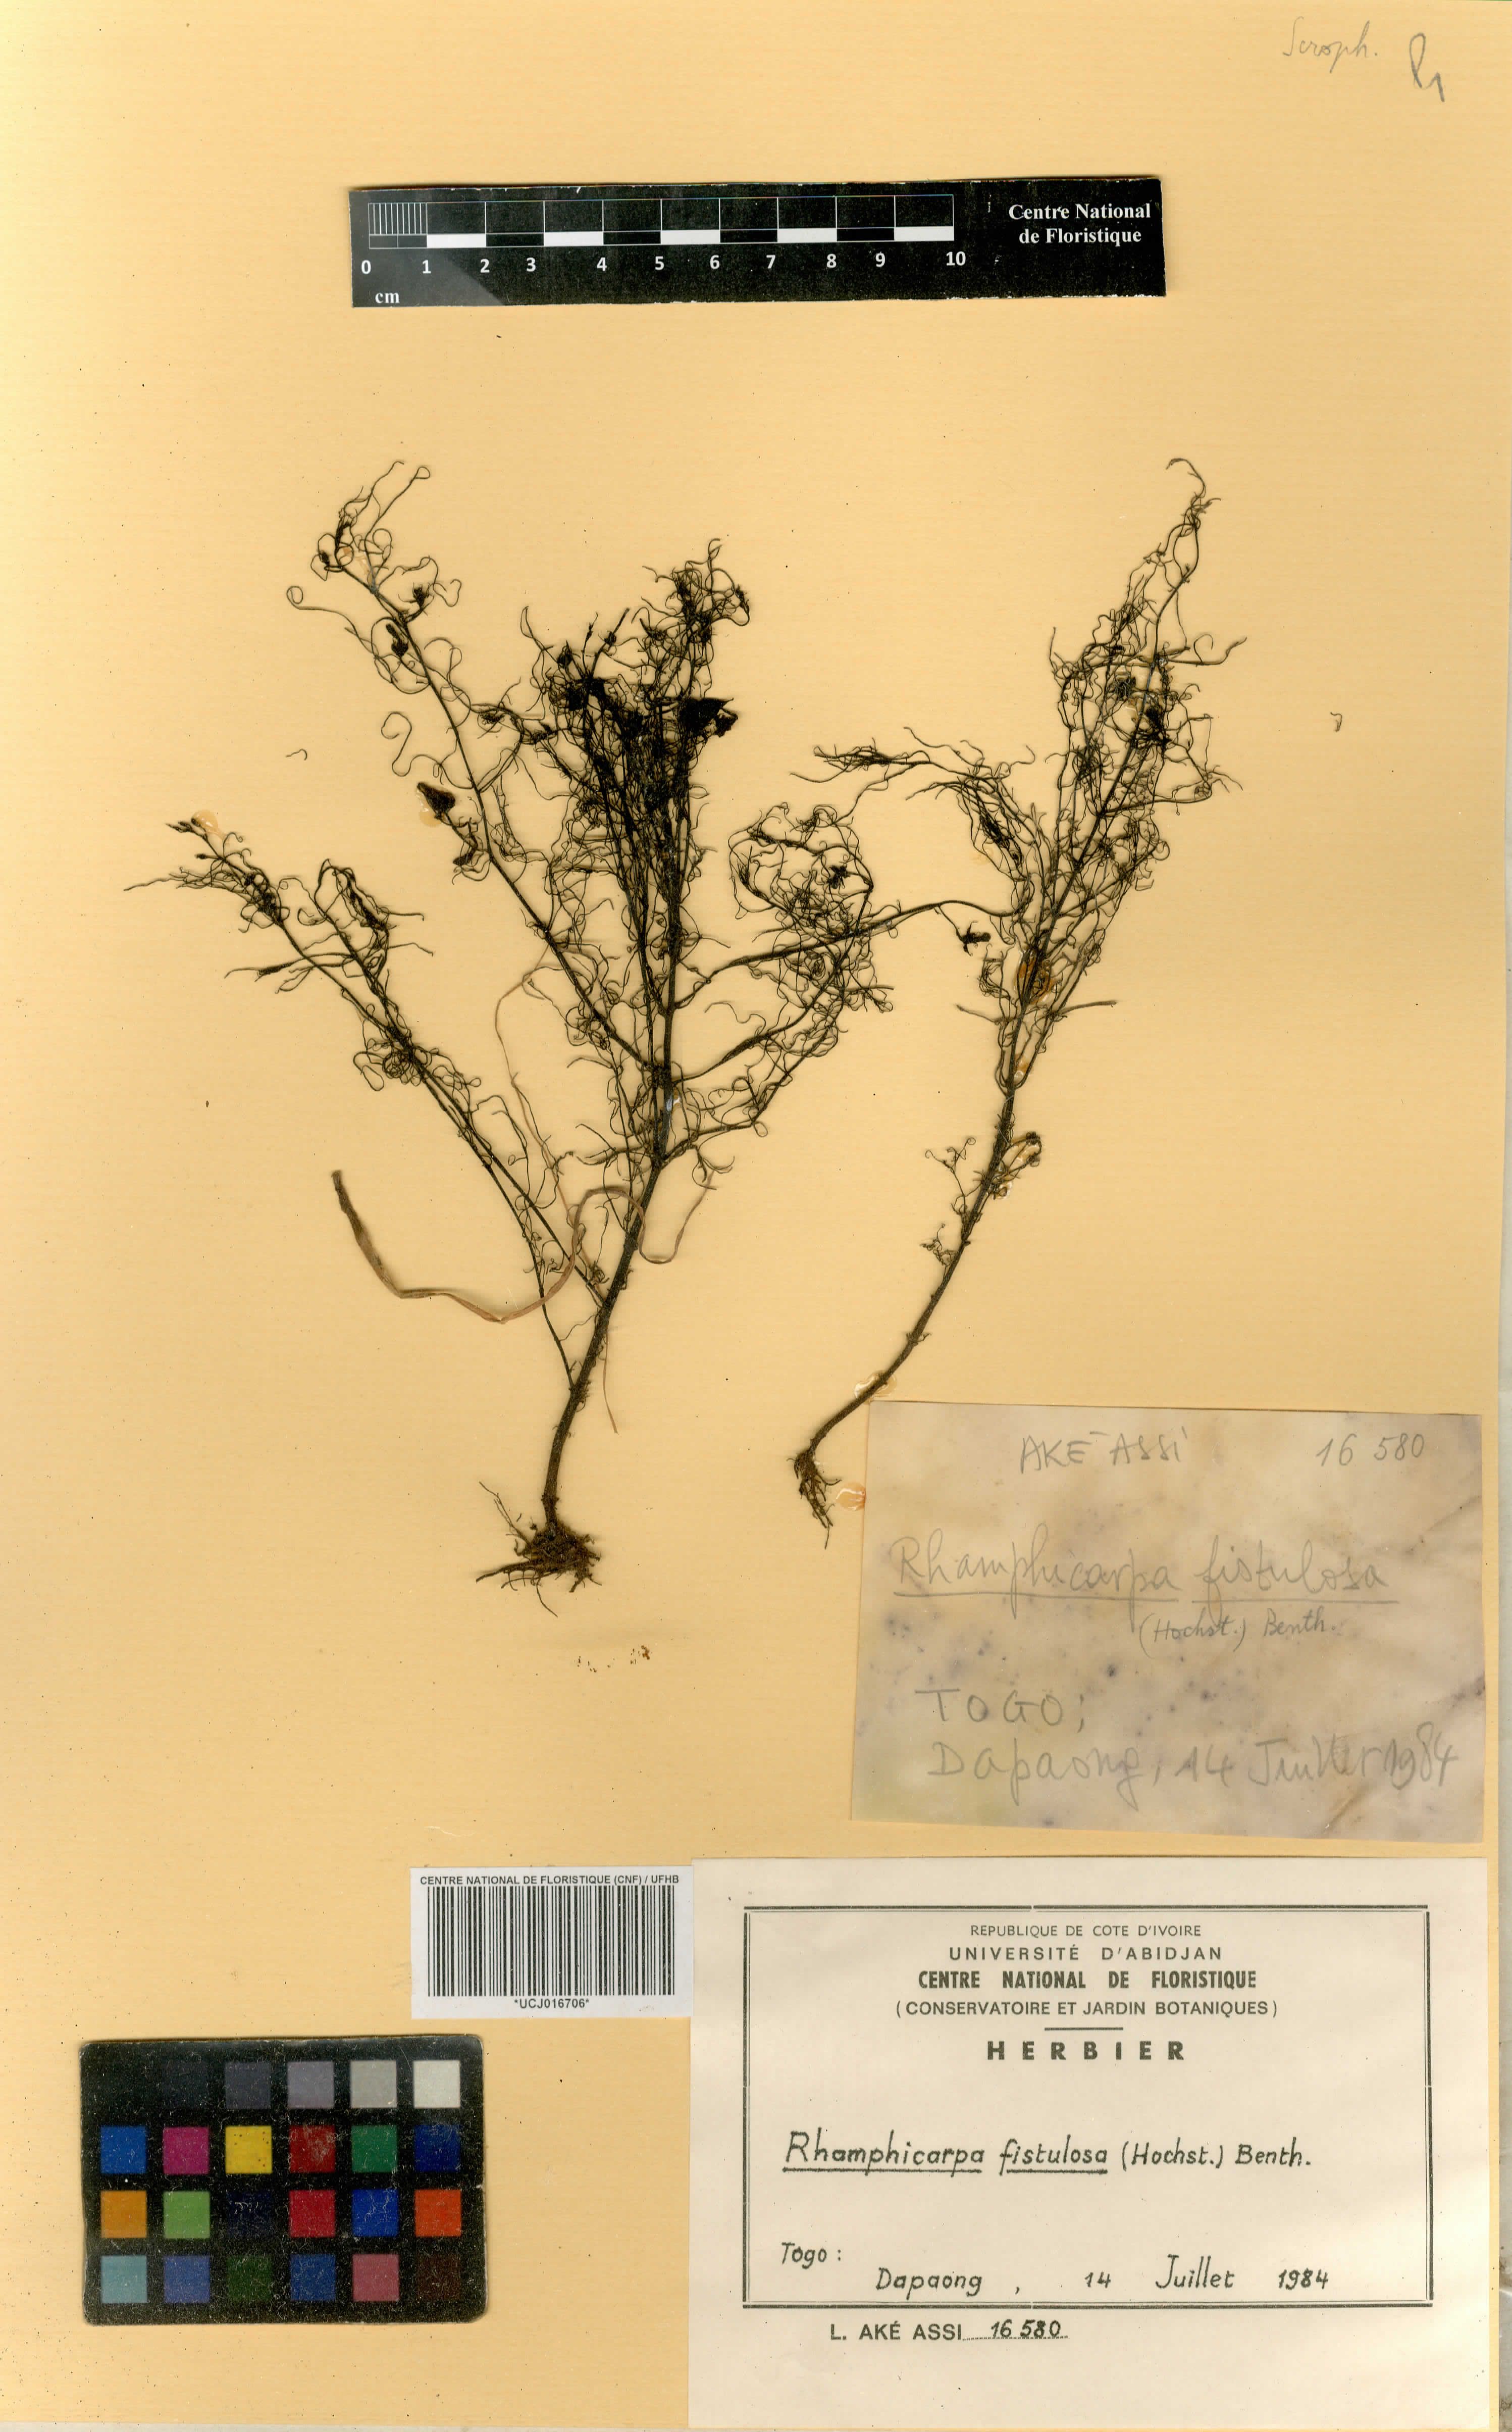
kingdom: Plantae
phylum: Tracheophyta
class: Magnoliopsida
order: Lamiales
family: Orobanchaceae
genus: Rhamphicarpa
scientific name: Rhamphicarpa fistulosa
